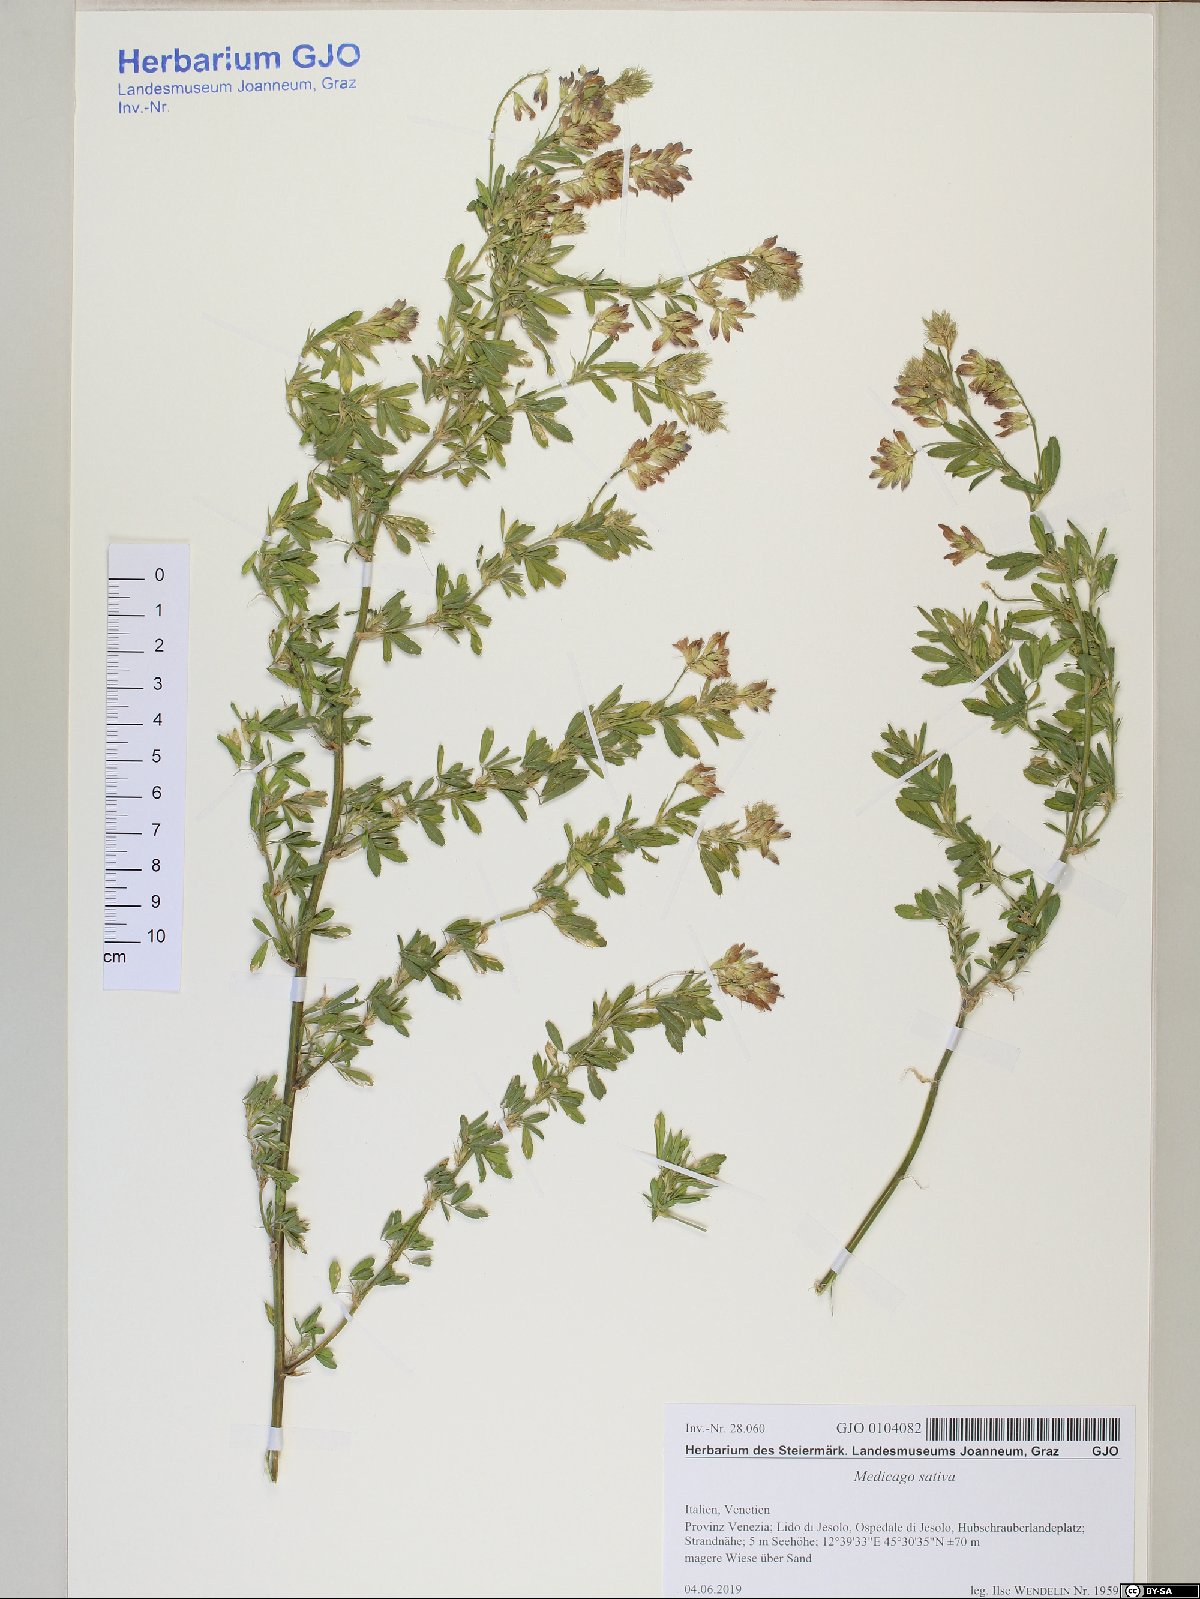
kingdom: Plantae
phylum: Tracheophyta
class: Magnoliopsida
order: Fabales
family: Fabaceae
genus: Medicago
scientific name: Medicago sativa
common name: Alfalfa
